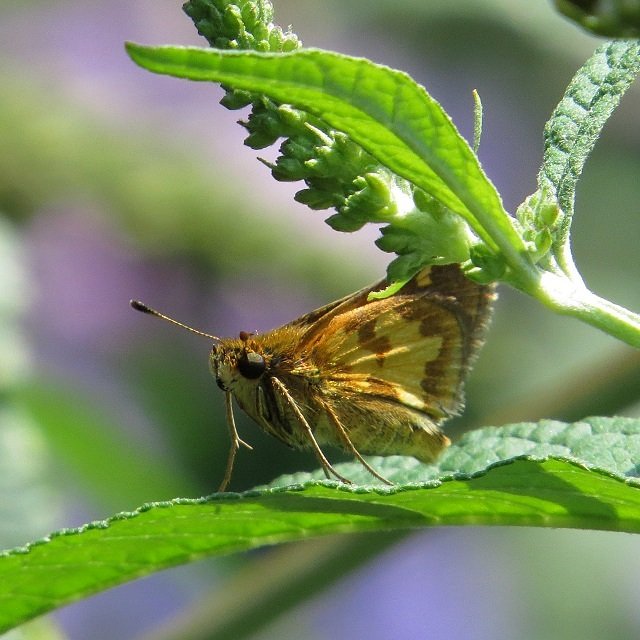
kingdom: Animalia
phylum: Arthropoda
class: Insecta
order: Lepidoptera
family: Hesperiidae
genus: Polites
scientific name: Polites coras
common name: Peck's Skipper
